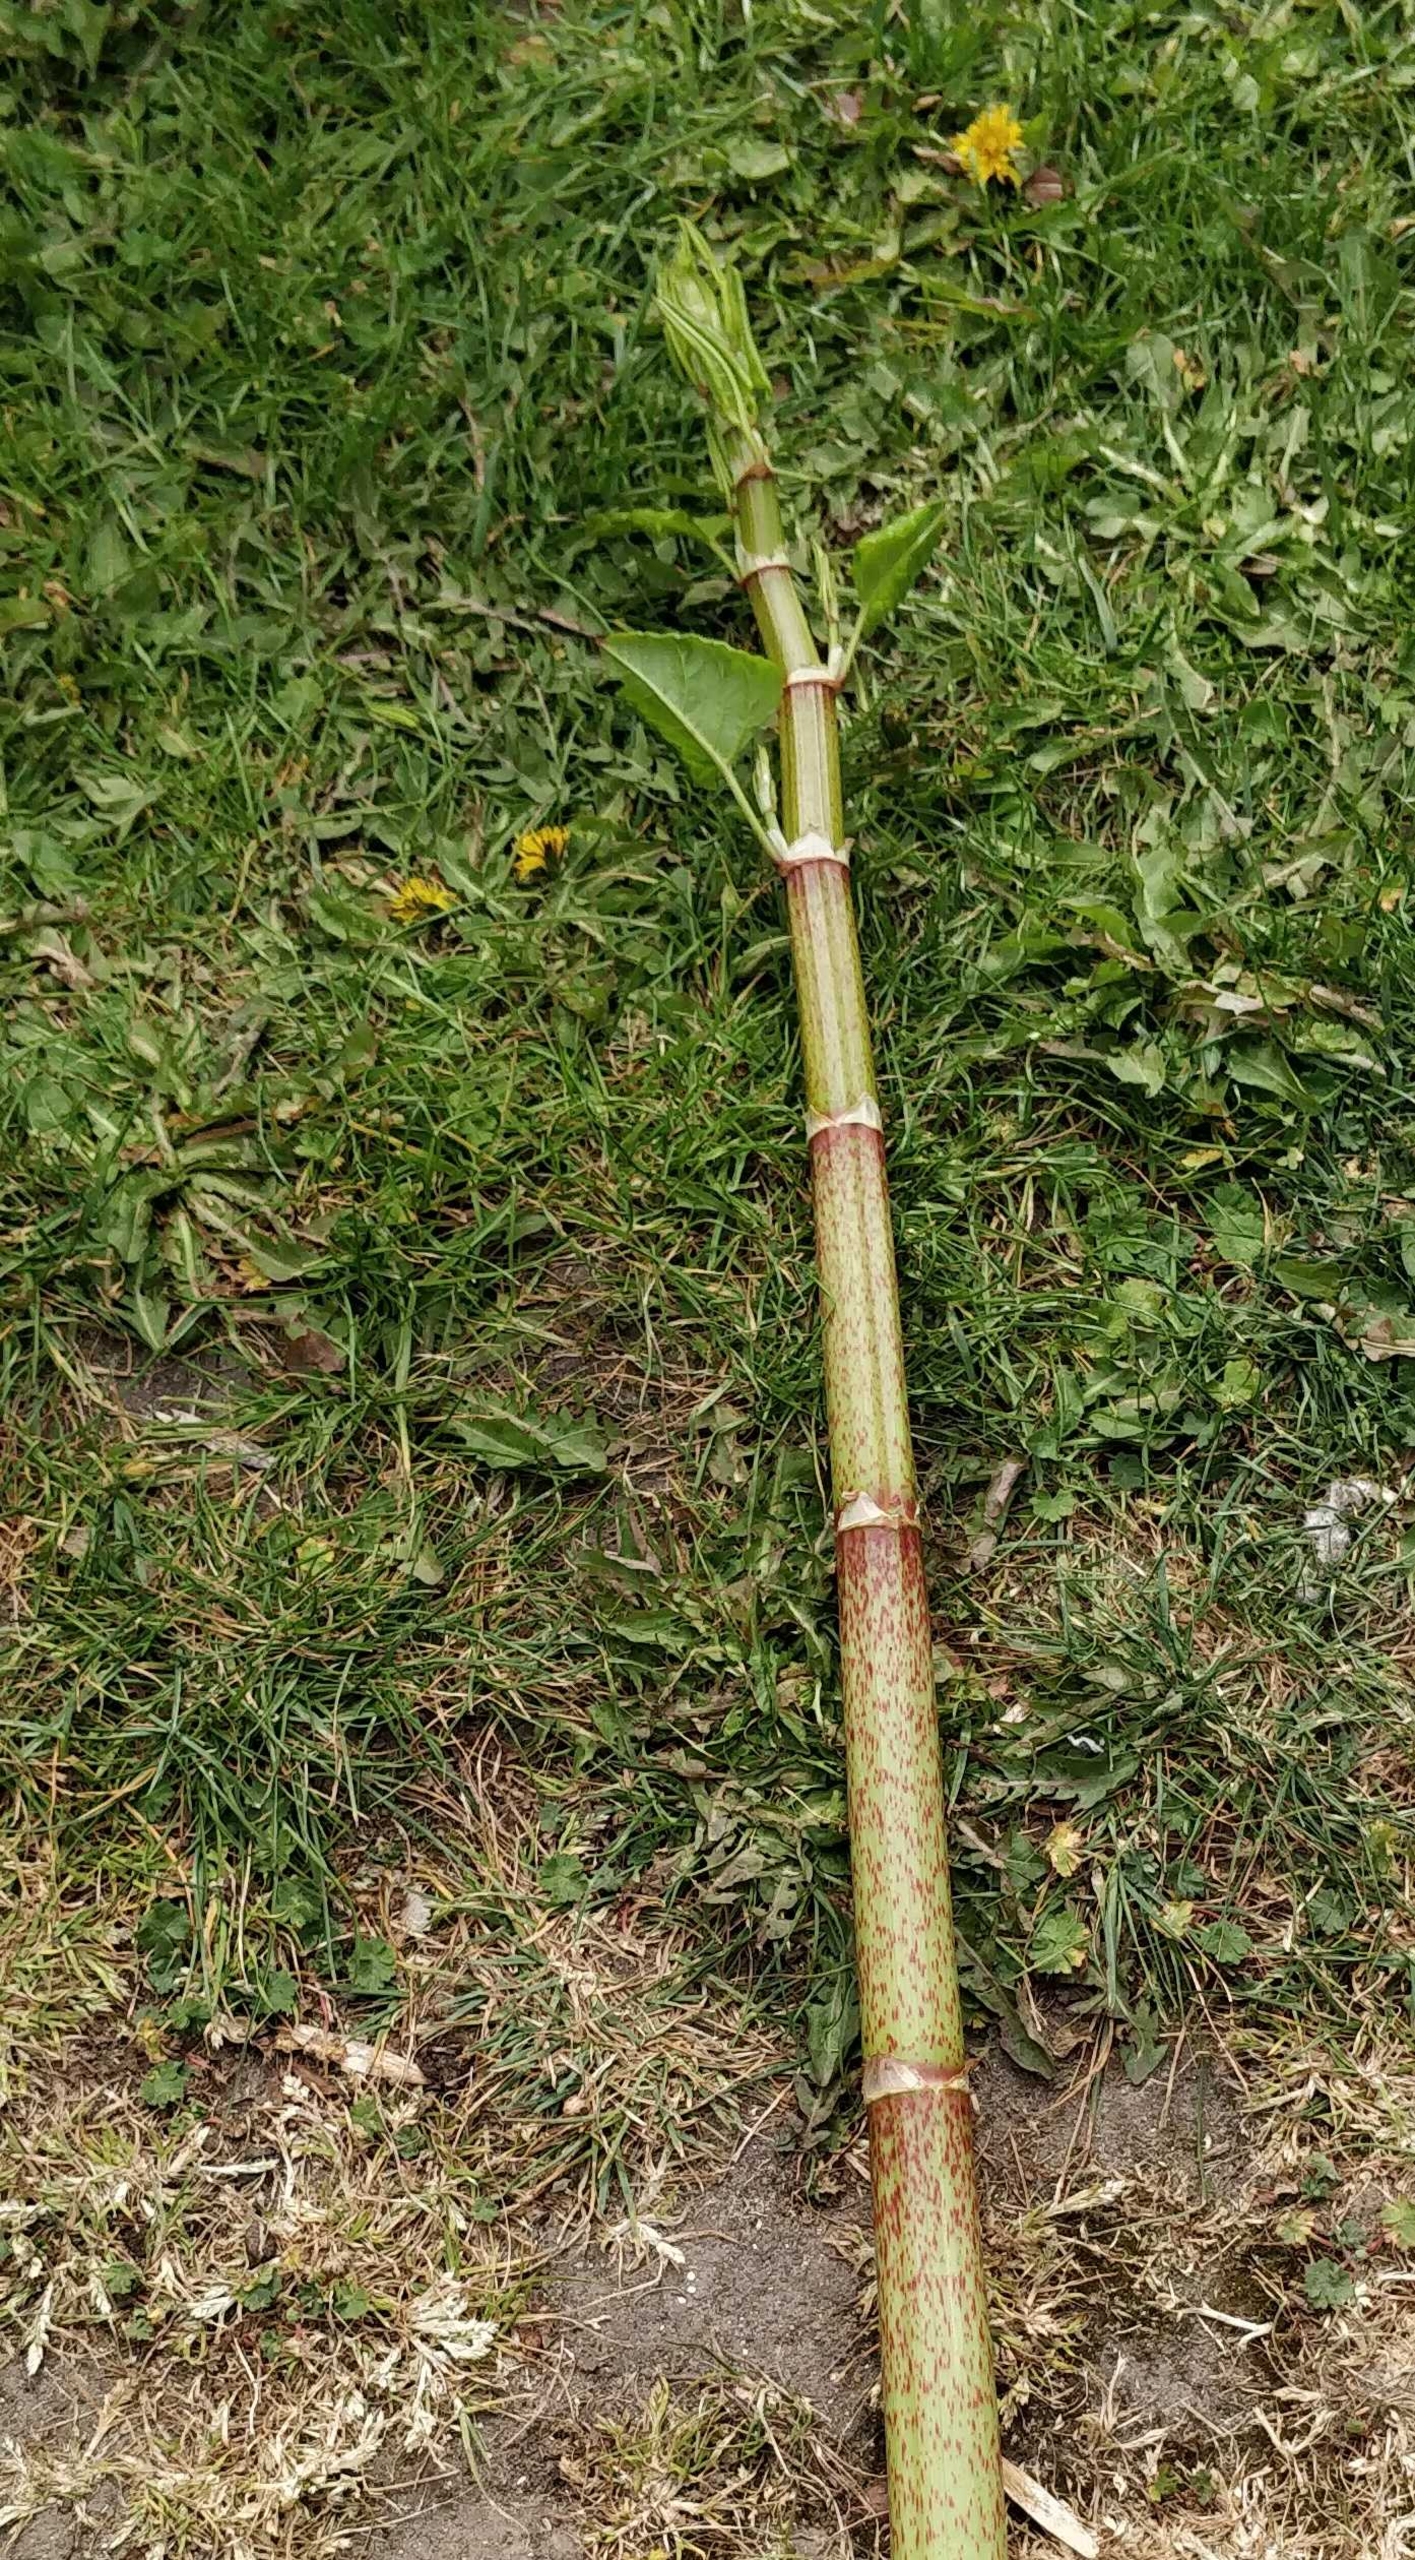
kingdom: Plantae
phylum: Tracheophyta
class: Magnoliopsida
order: Caryophyllales
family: Polygonaceae
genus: Reynoutria
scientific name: Reynoutria japonica
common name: Japan-pileurt
